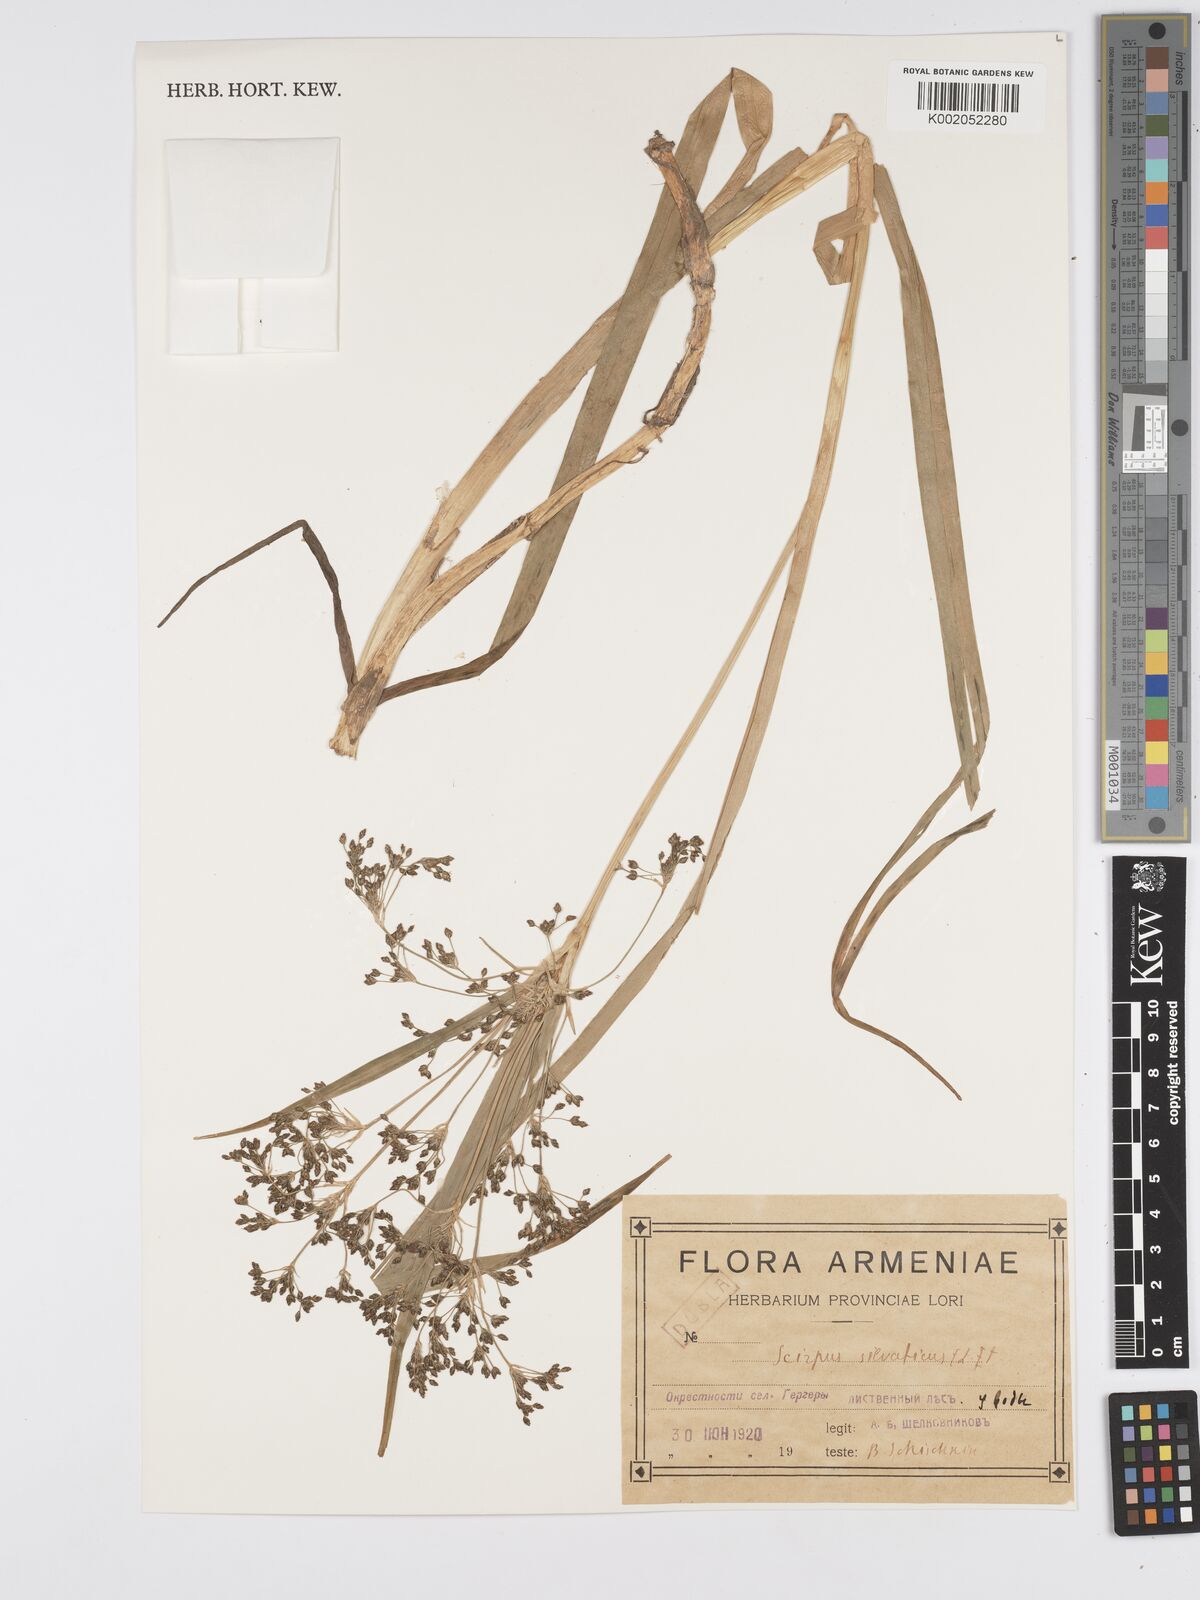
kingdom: Plantae
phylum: Tracheophyta
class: Liliopsida
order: Poales
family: Cyperaceae
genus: Scirpus
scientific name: Scirpus sylvaticus
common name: Wood club-rush
